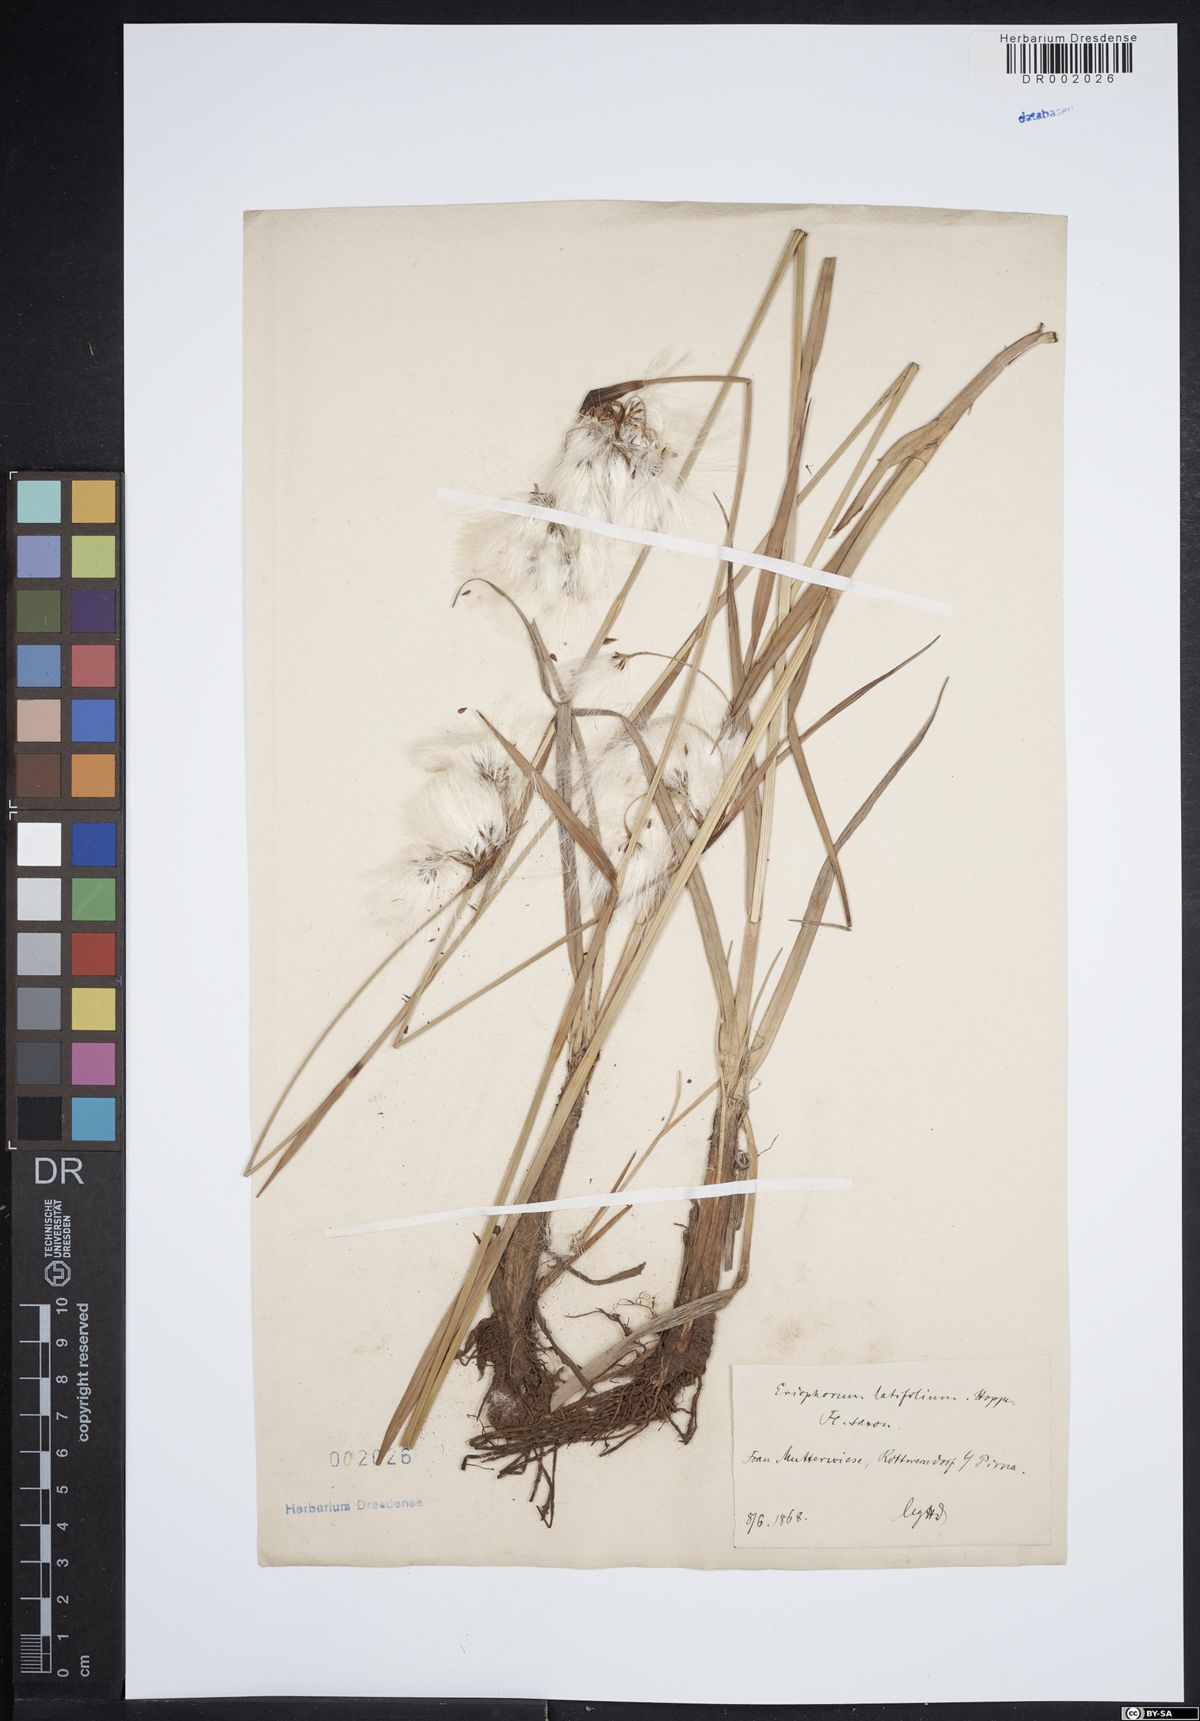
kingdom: Plantae
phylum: Tracheophyta
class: Liliopsida
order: Poales
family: Cyperaceae
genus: Eriophorum
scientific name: Eriophorum latifolium
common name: Broad-leaved cottongrass
